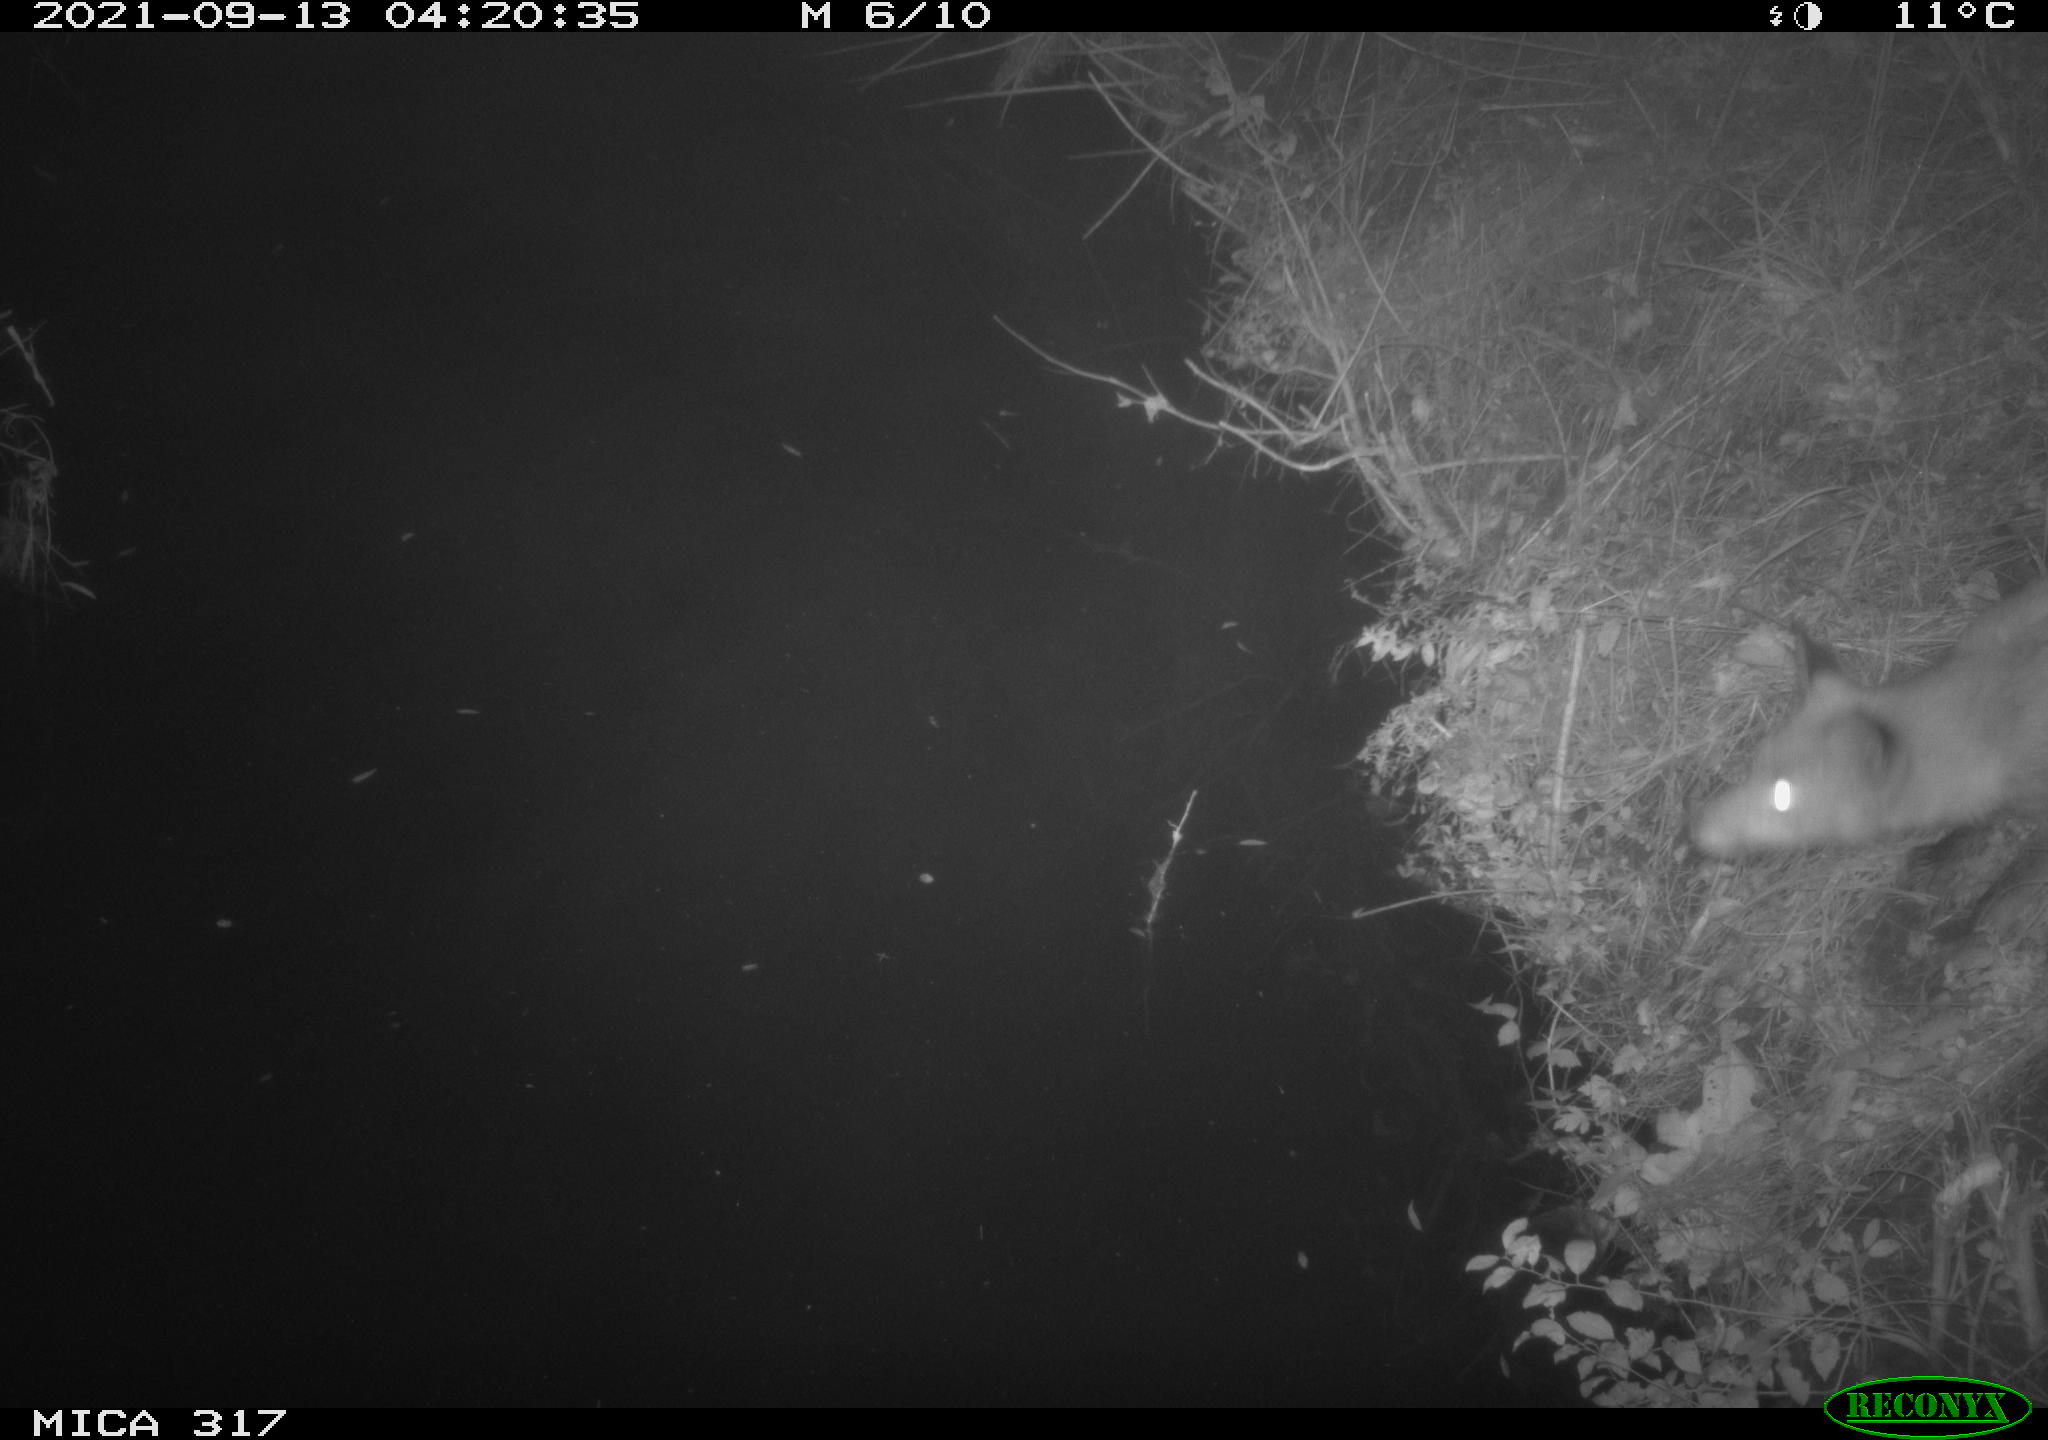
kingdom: Animalia
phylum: Chordata
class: Mammalia
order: Carnivora
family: Canidae
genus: Vulpes
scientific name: Vulpes vulpes
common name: Red fox
